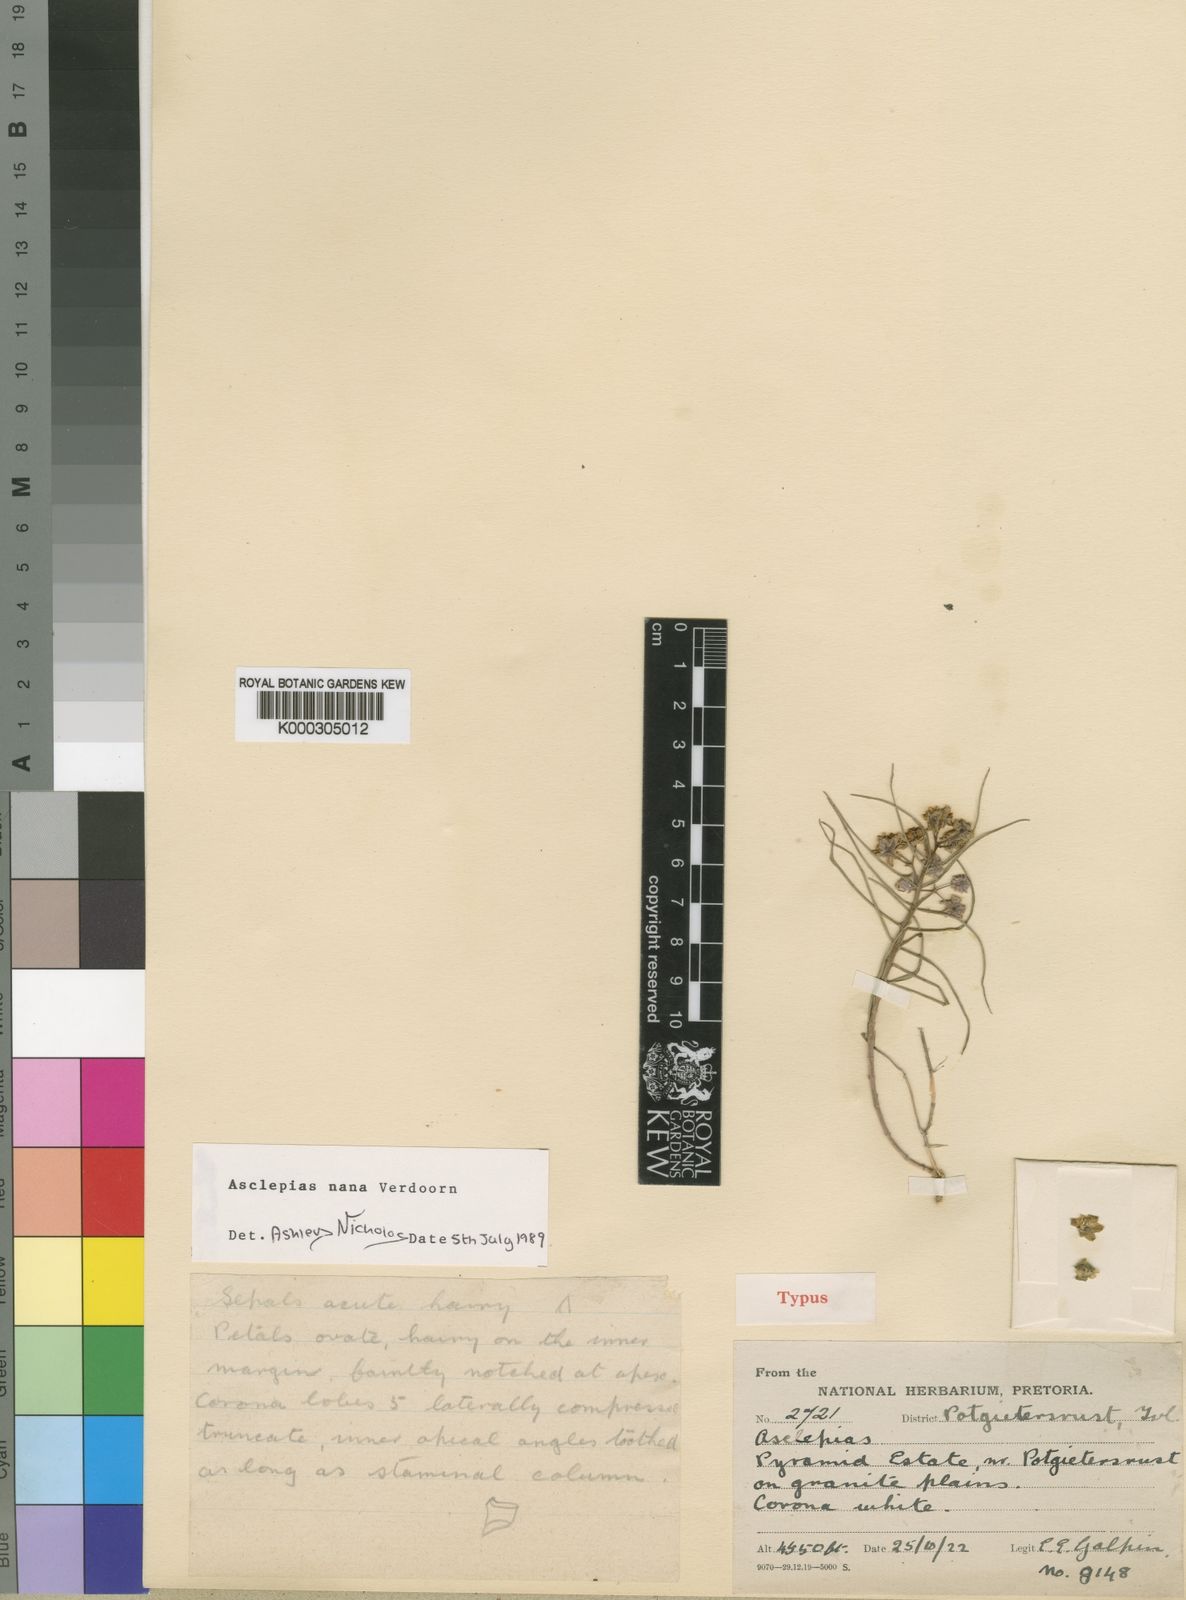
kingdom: Plantae
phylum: Tracheophyta
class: Magnoliopsida
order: Gentianales
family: Apocynaceae
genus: Asclepias
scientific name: Asclepias nana
